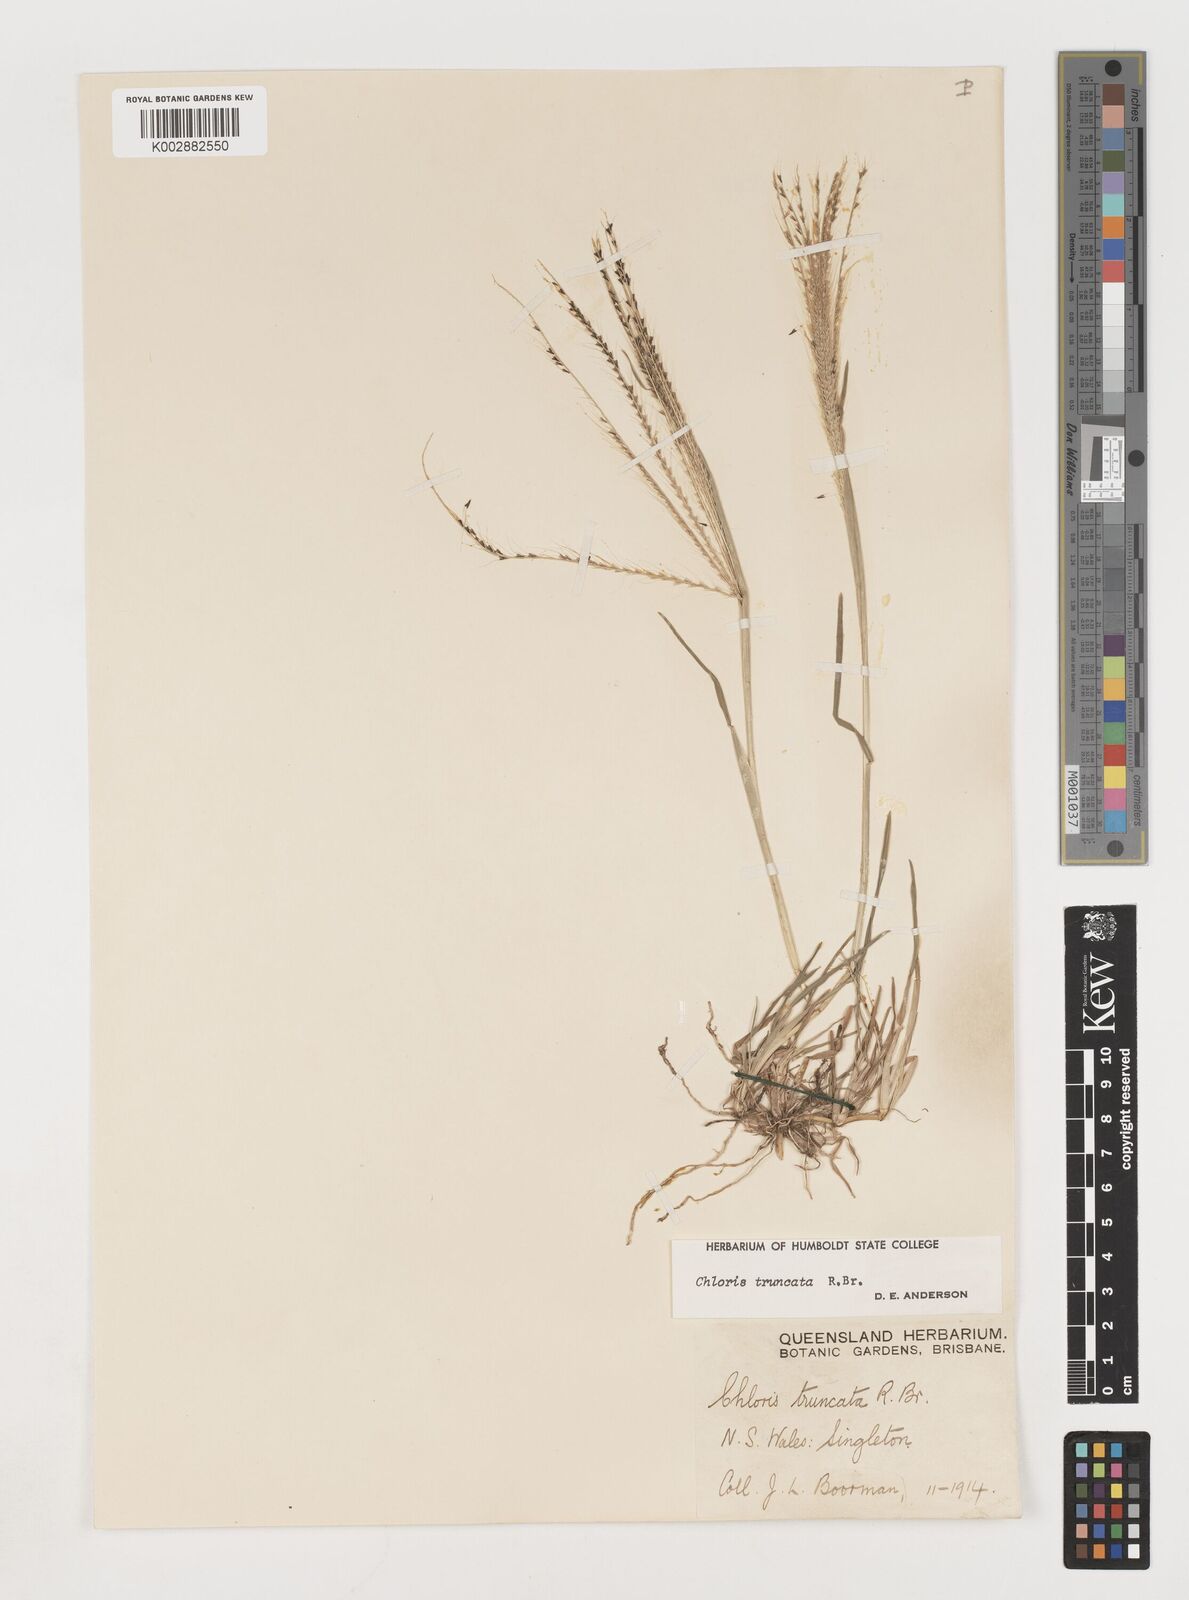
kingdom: Plantae
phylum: Tracheophyta
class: Liliopsida
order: Poales
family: Poaceae
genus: Chloris
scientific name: Chloris truncata
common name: Windmill-grass
